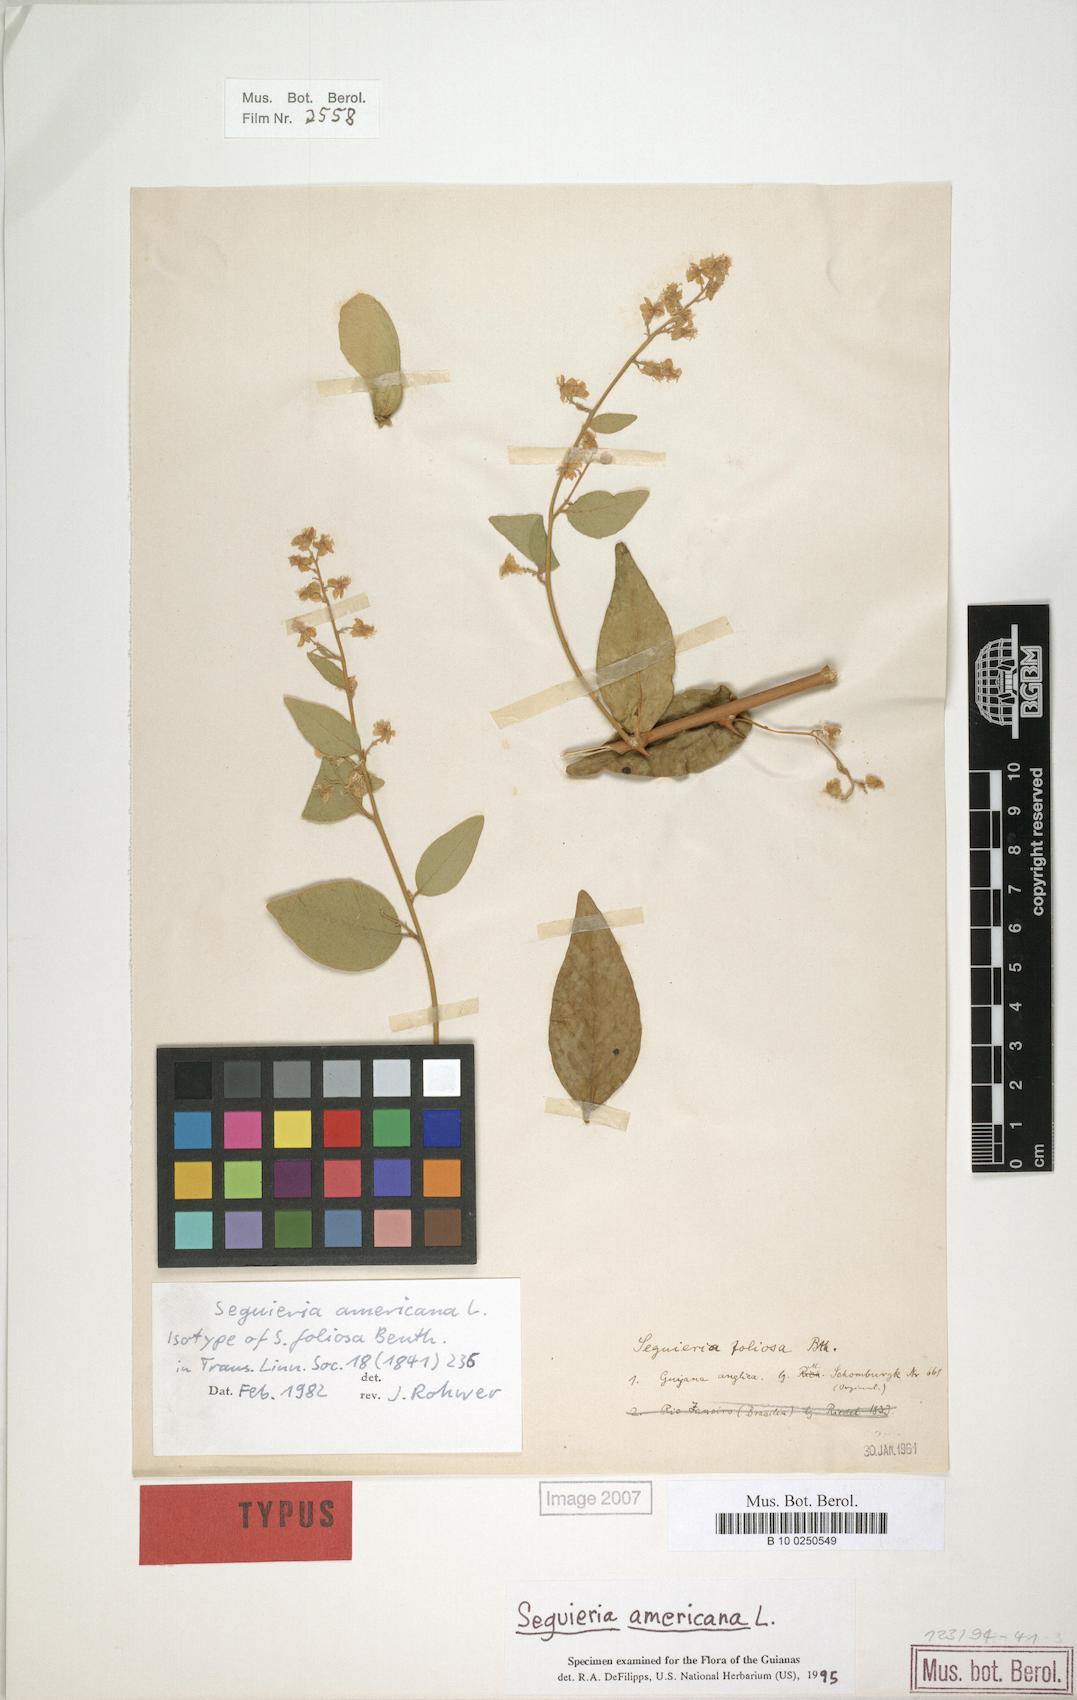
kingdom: Plantae
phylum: Tracheophyta
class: Magnoliopsida
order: Caryophyllales
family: Phytolaccaceae
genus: Seguieria
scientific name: Seguieria americana
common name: American seguieria
